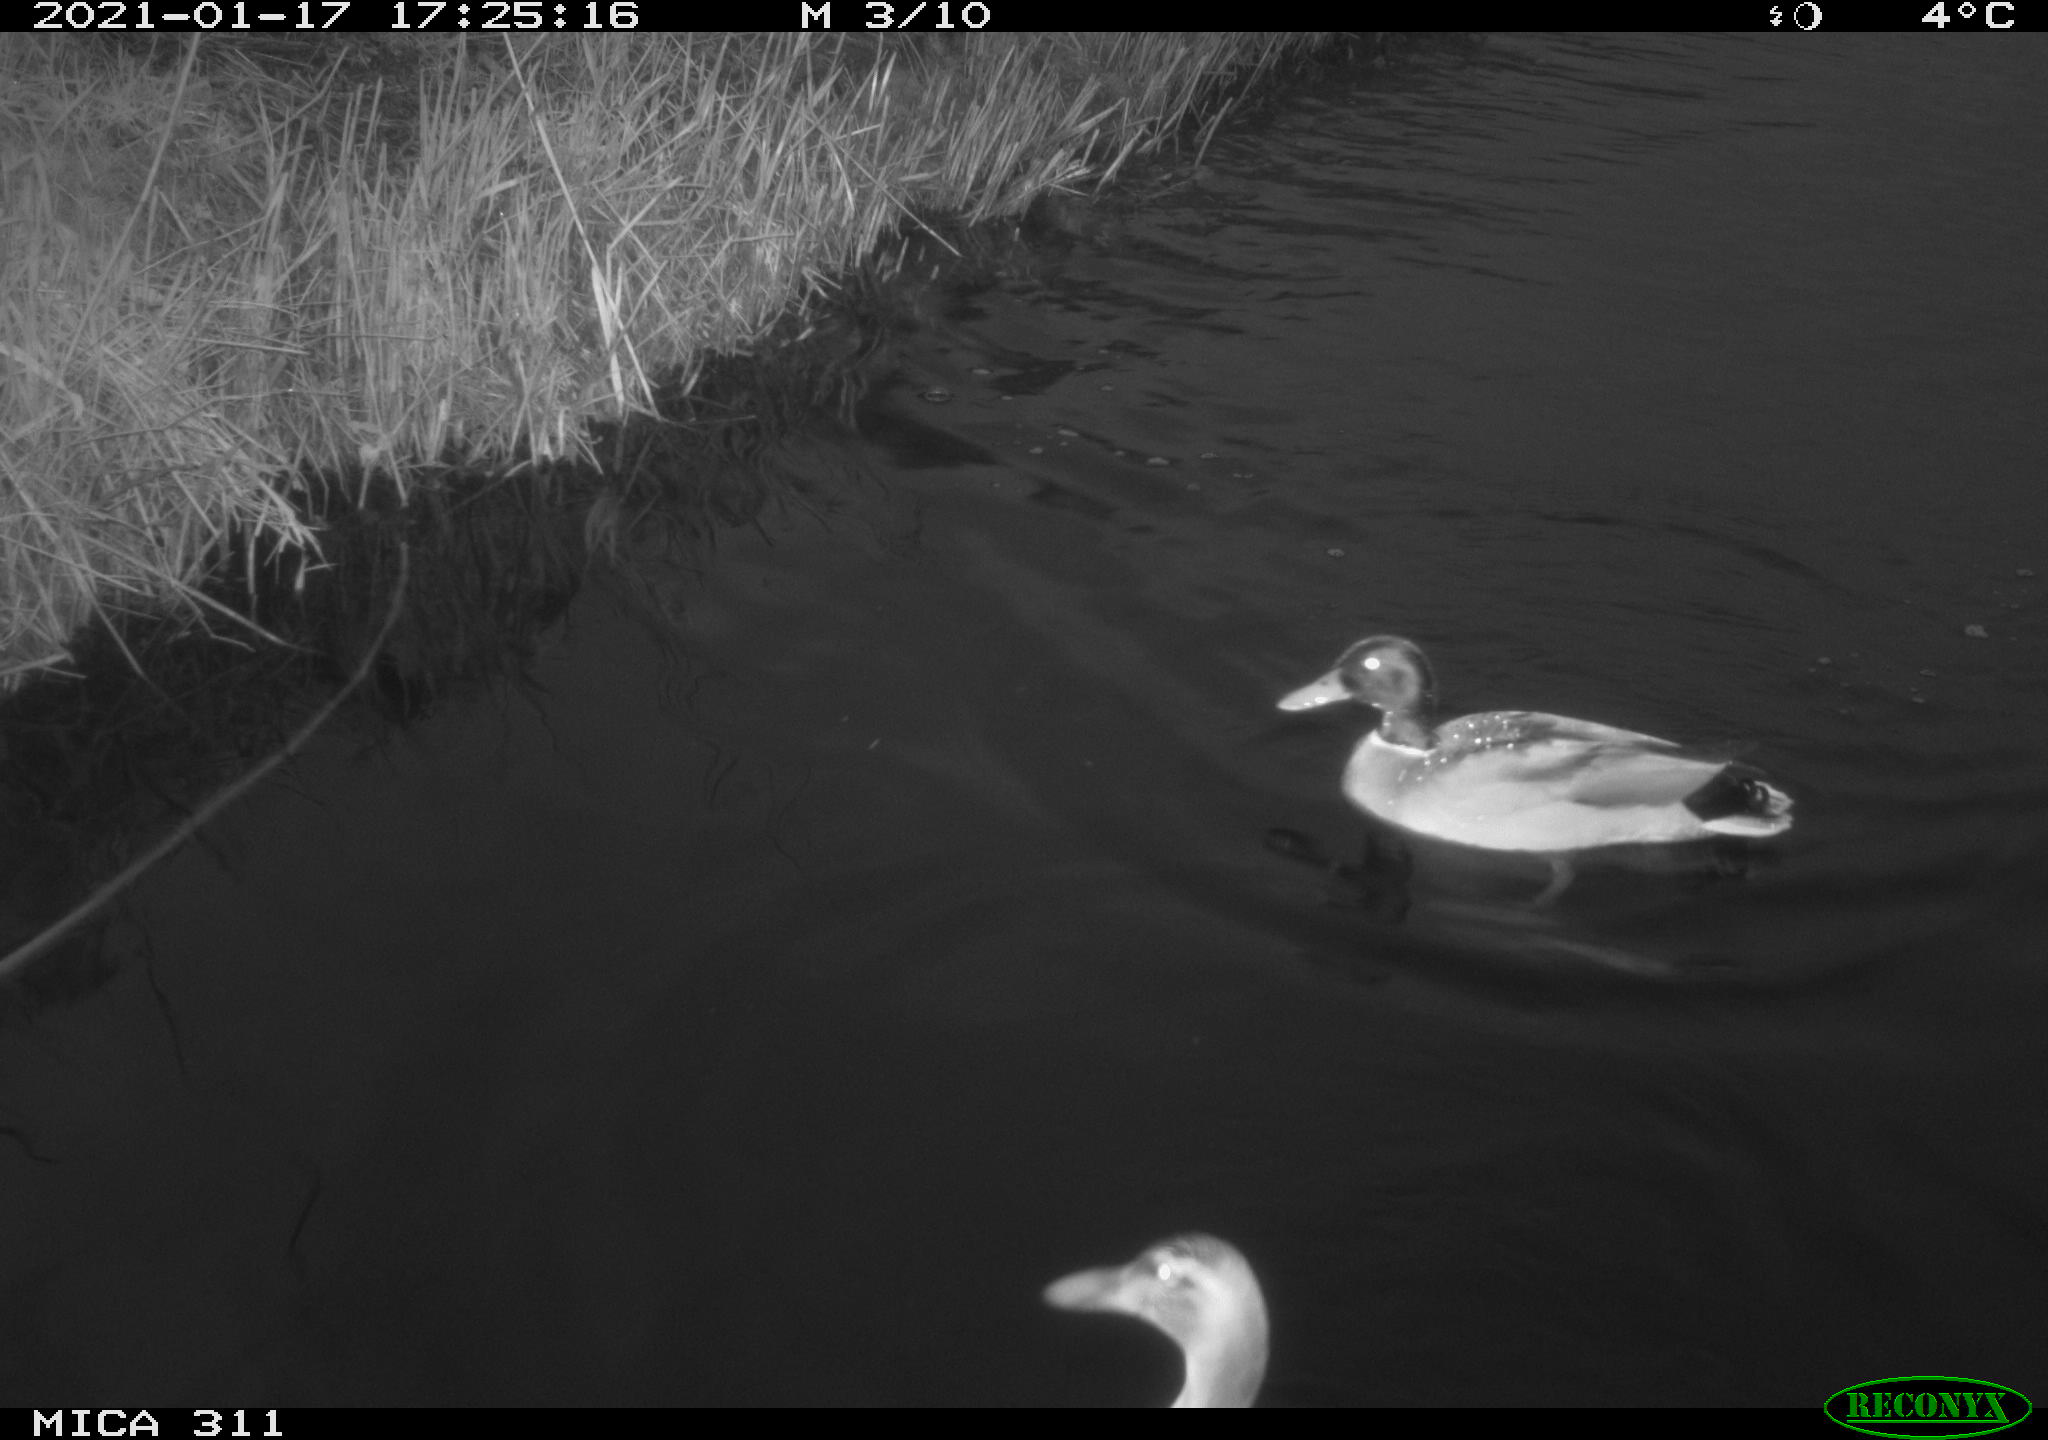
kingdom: Animalia
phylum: Chordata
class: Aves
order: Anseriformes
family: Anatidae
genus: Anas
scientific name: Anas
